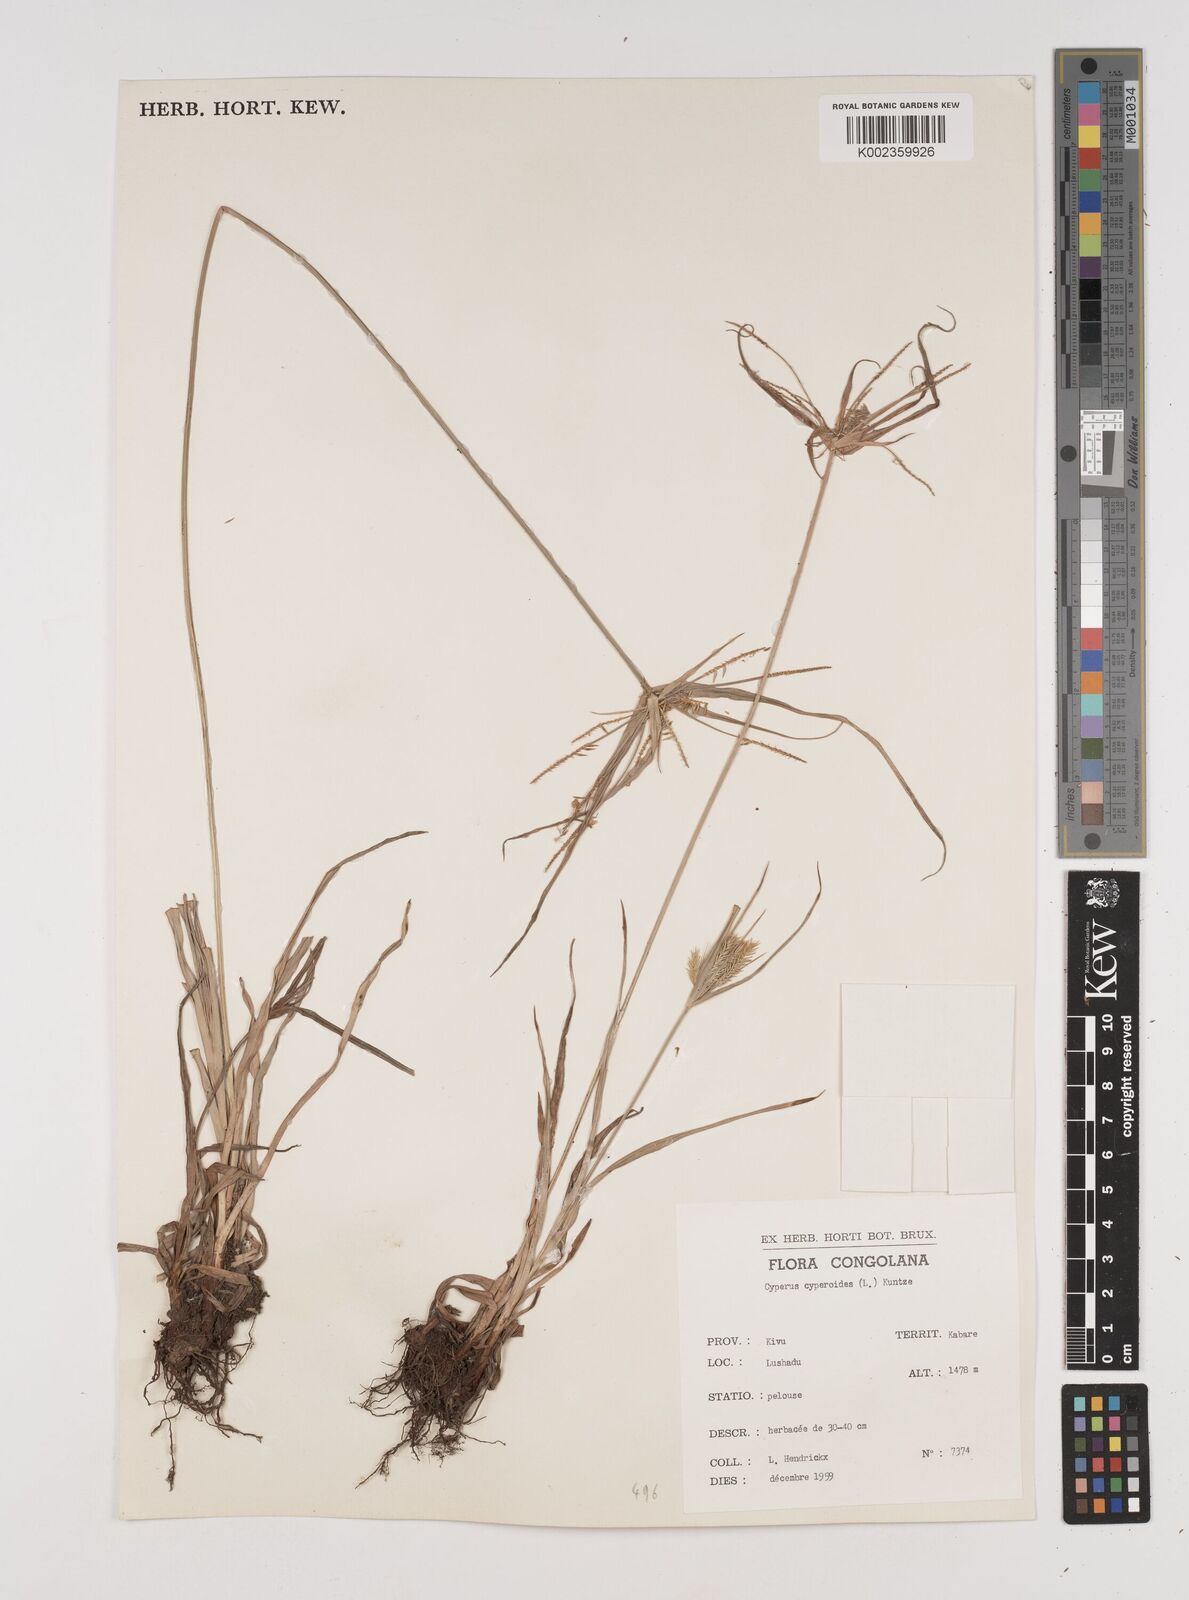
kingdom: Plantae
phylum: Tracheophyta
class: Liliopsida
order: Poales
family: Cyperaceae
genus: Cyperus
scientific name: Cyperus cyperoides
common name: Pacific island flat sedge
